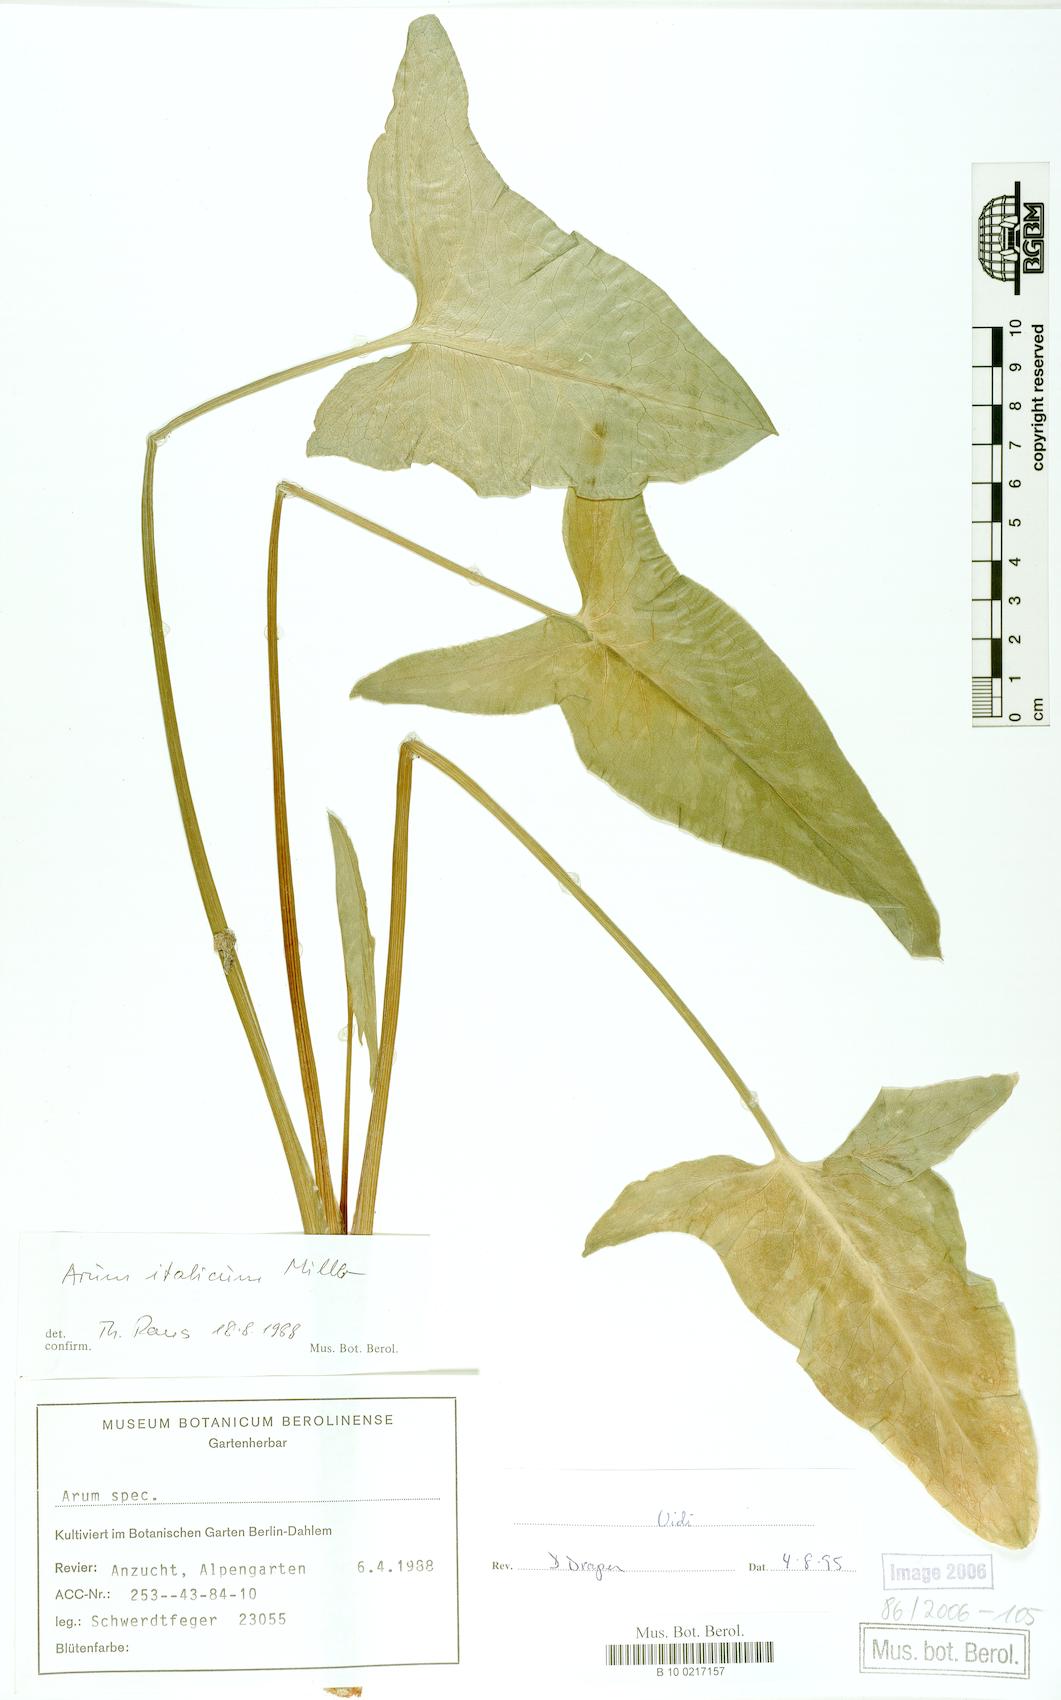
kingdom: Plantae
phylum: Tracheophyta
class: Liliopsida
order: Alismatales
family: Araceae
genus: Arum
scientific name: Arum italicum
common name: Italian lords-and-ladies
